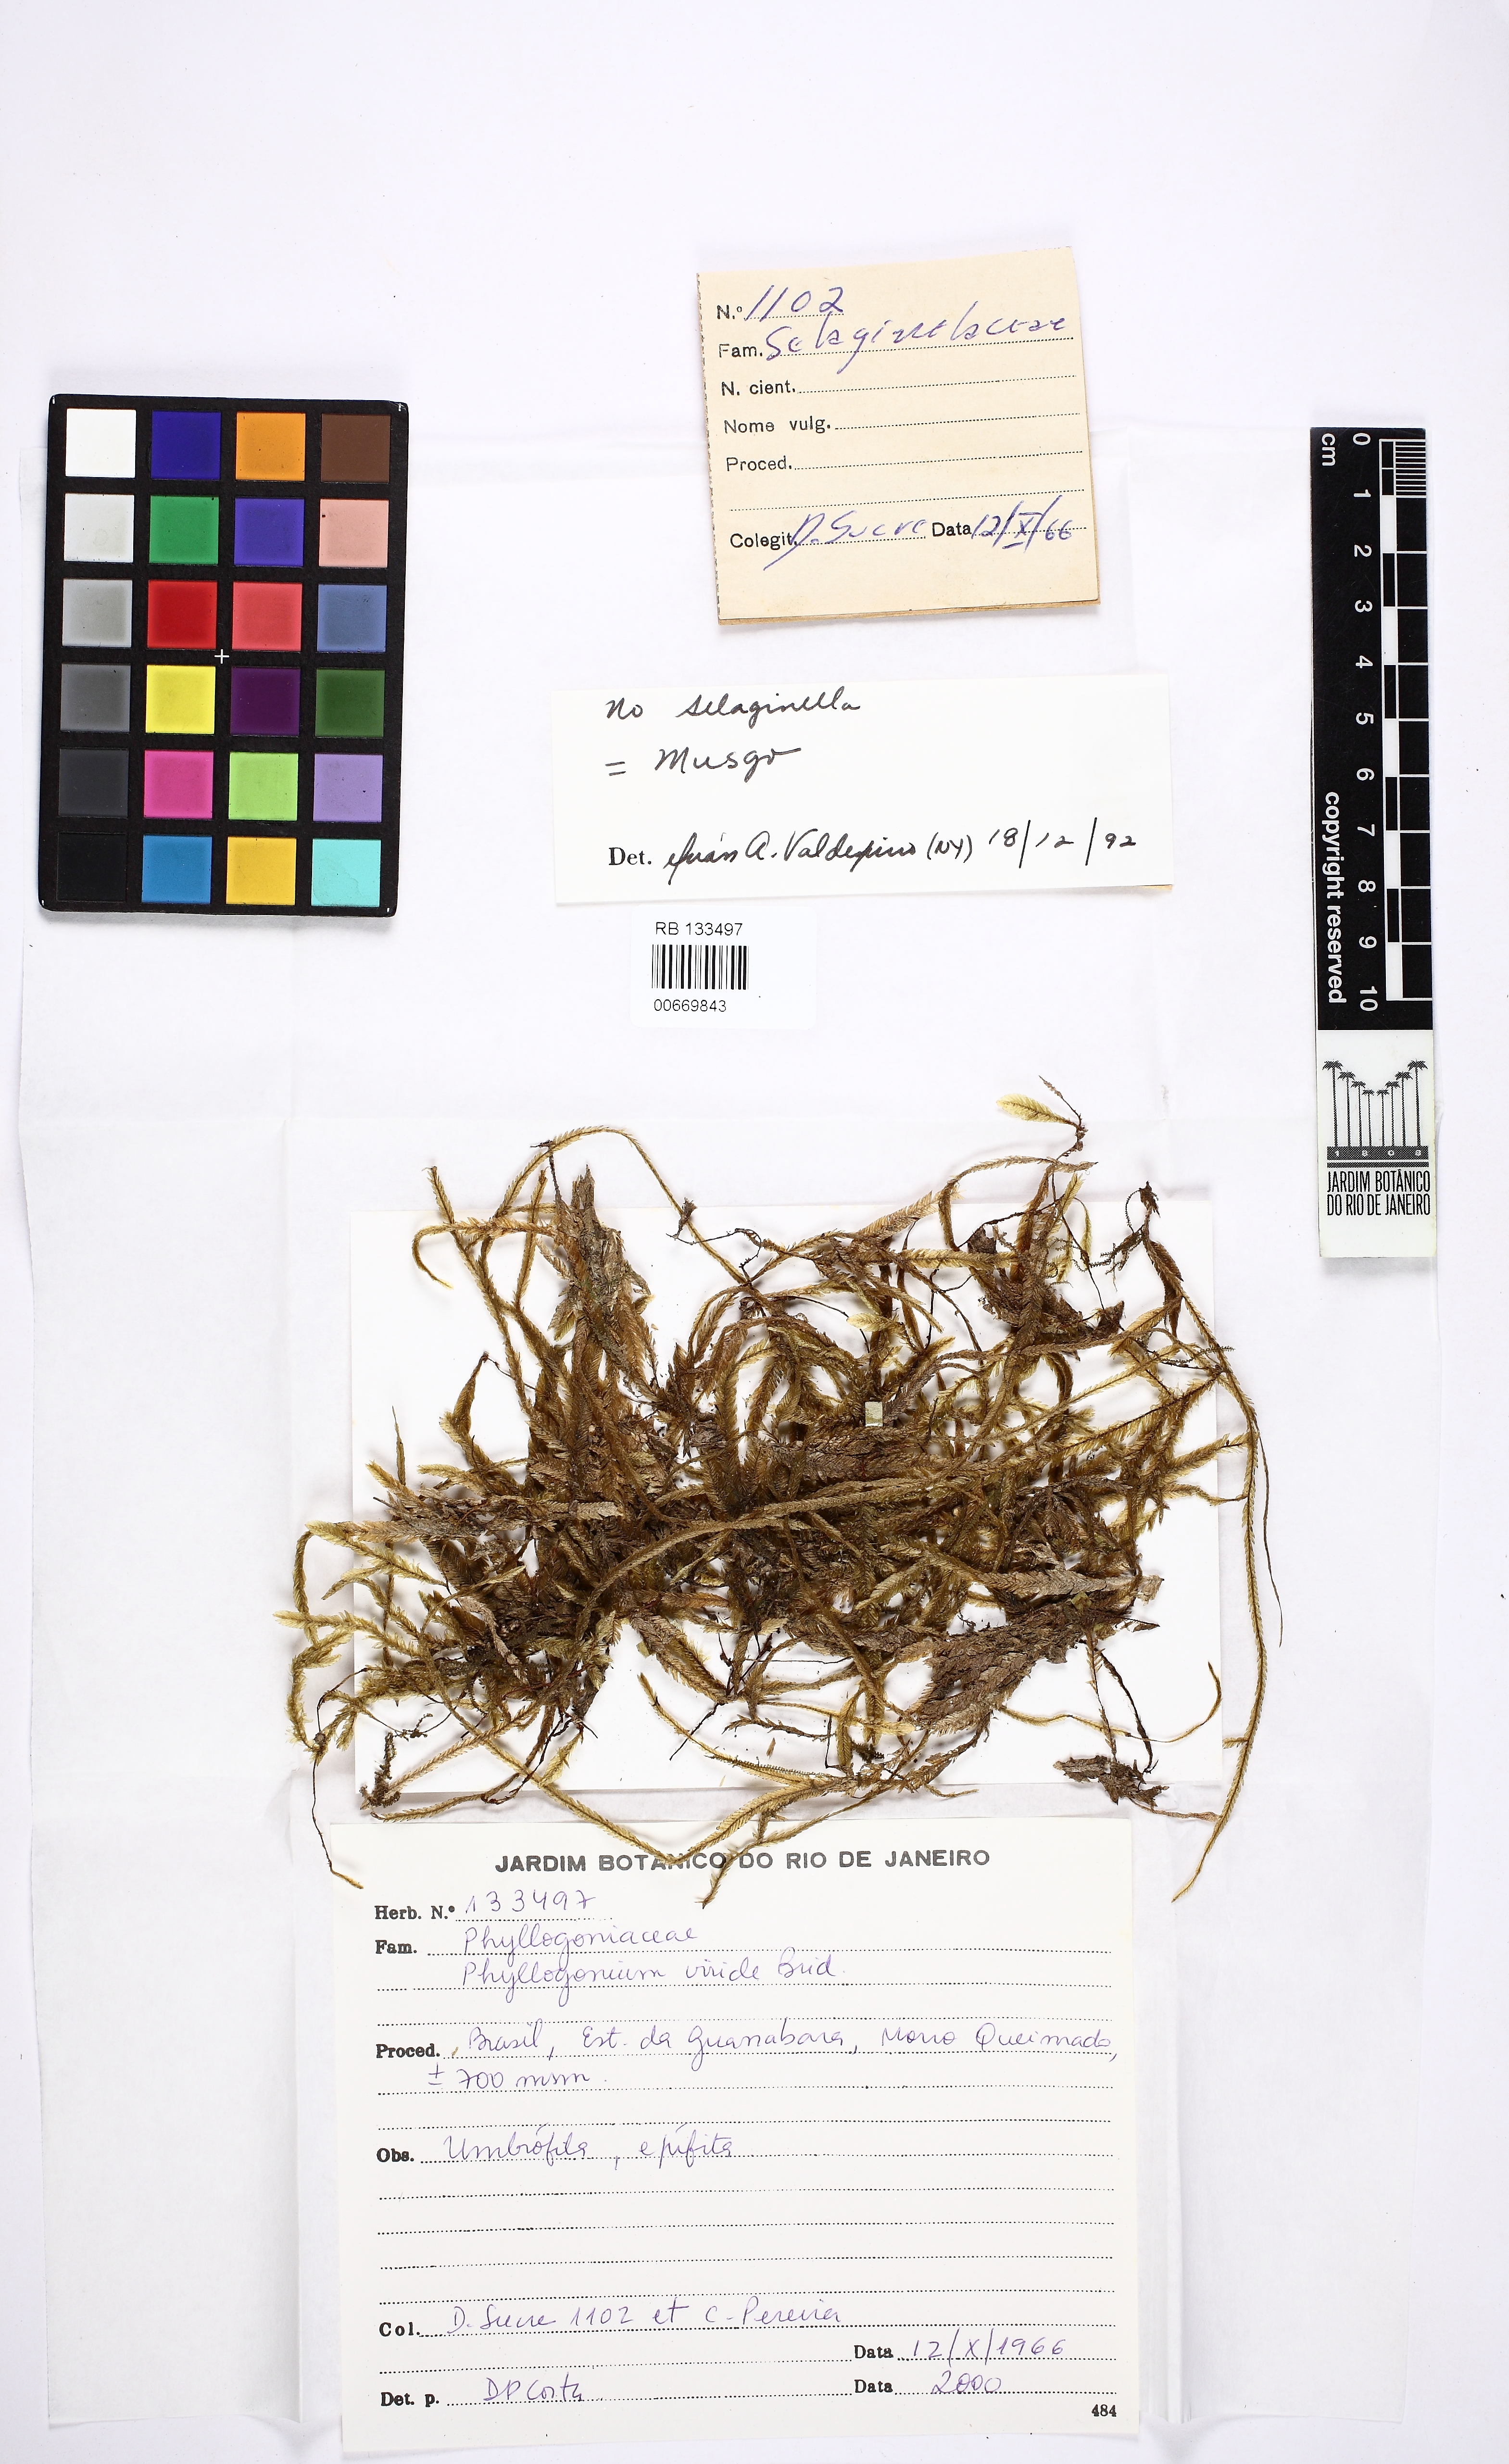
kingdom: Plantae
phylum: Bryophyta
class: Bryopsida
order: Hypnales
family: Phyllogoniaceae
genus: Phyllogonium
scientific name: Phyllogonium viride
